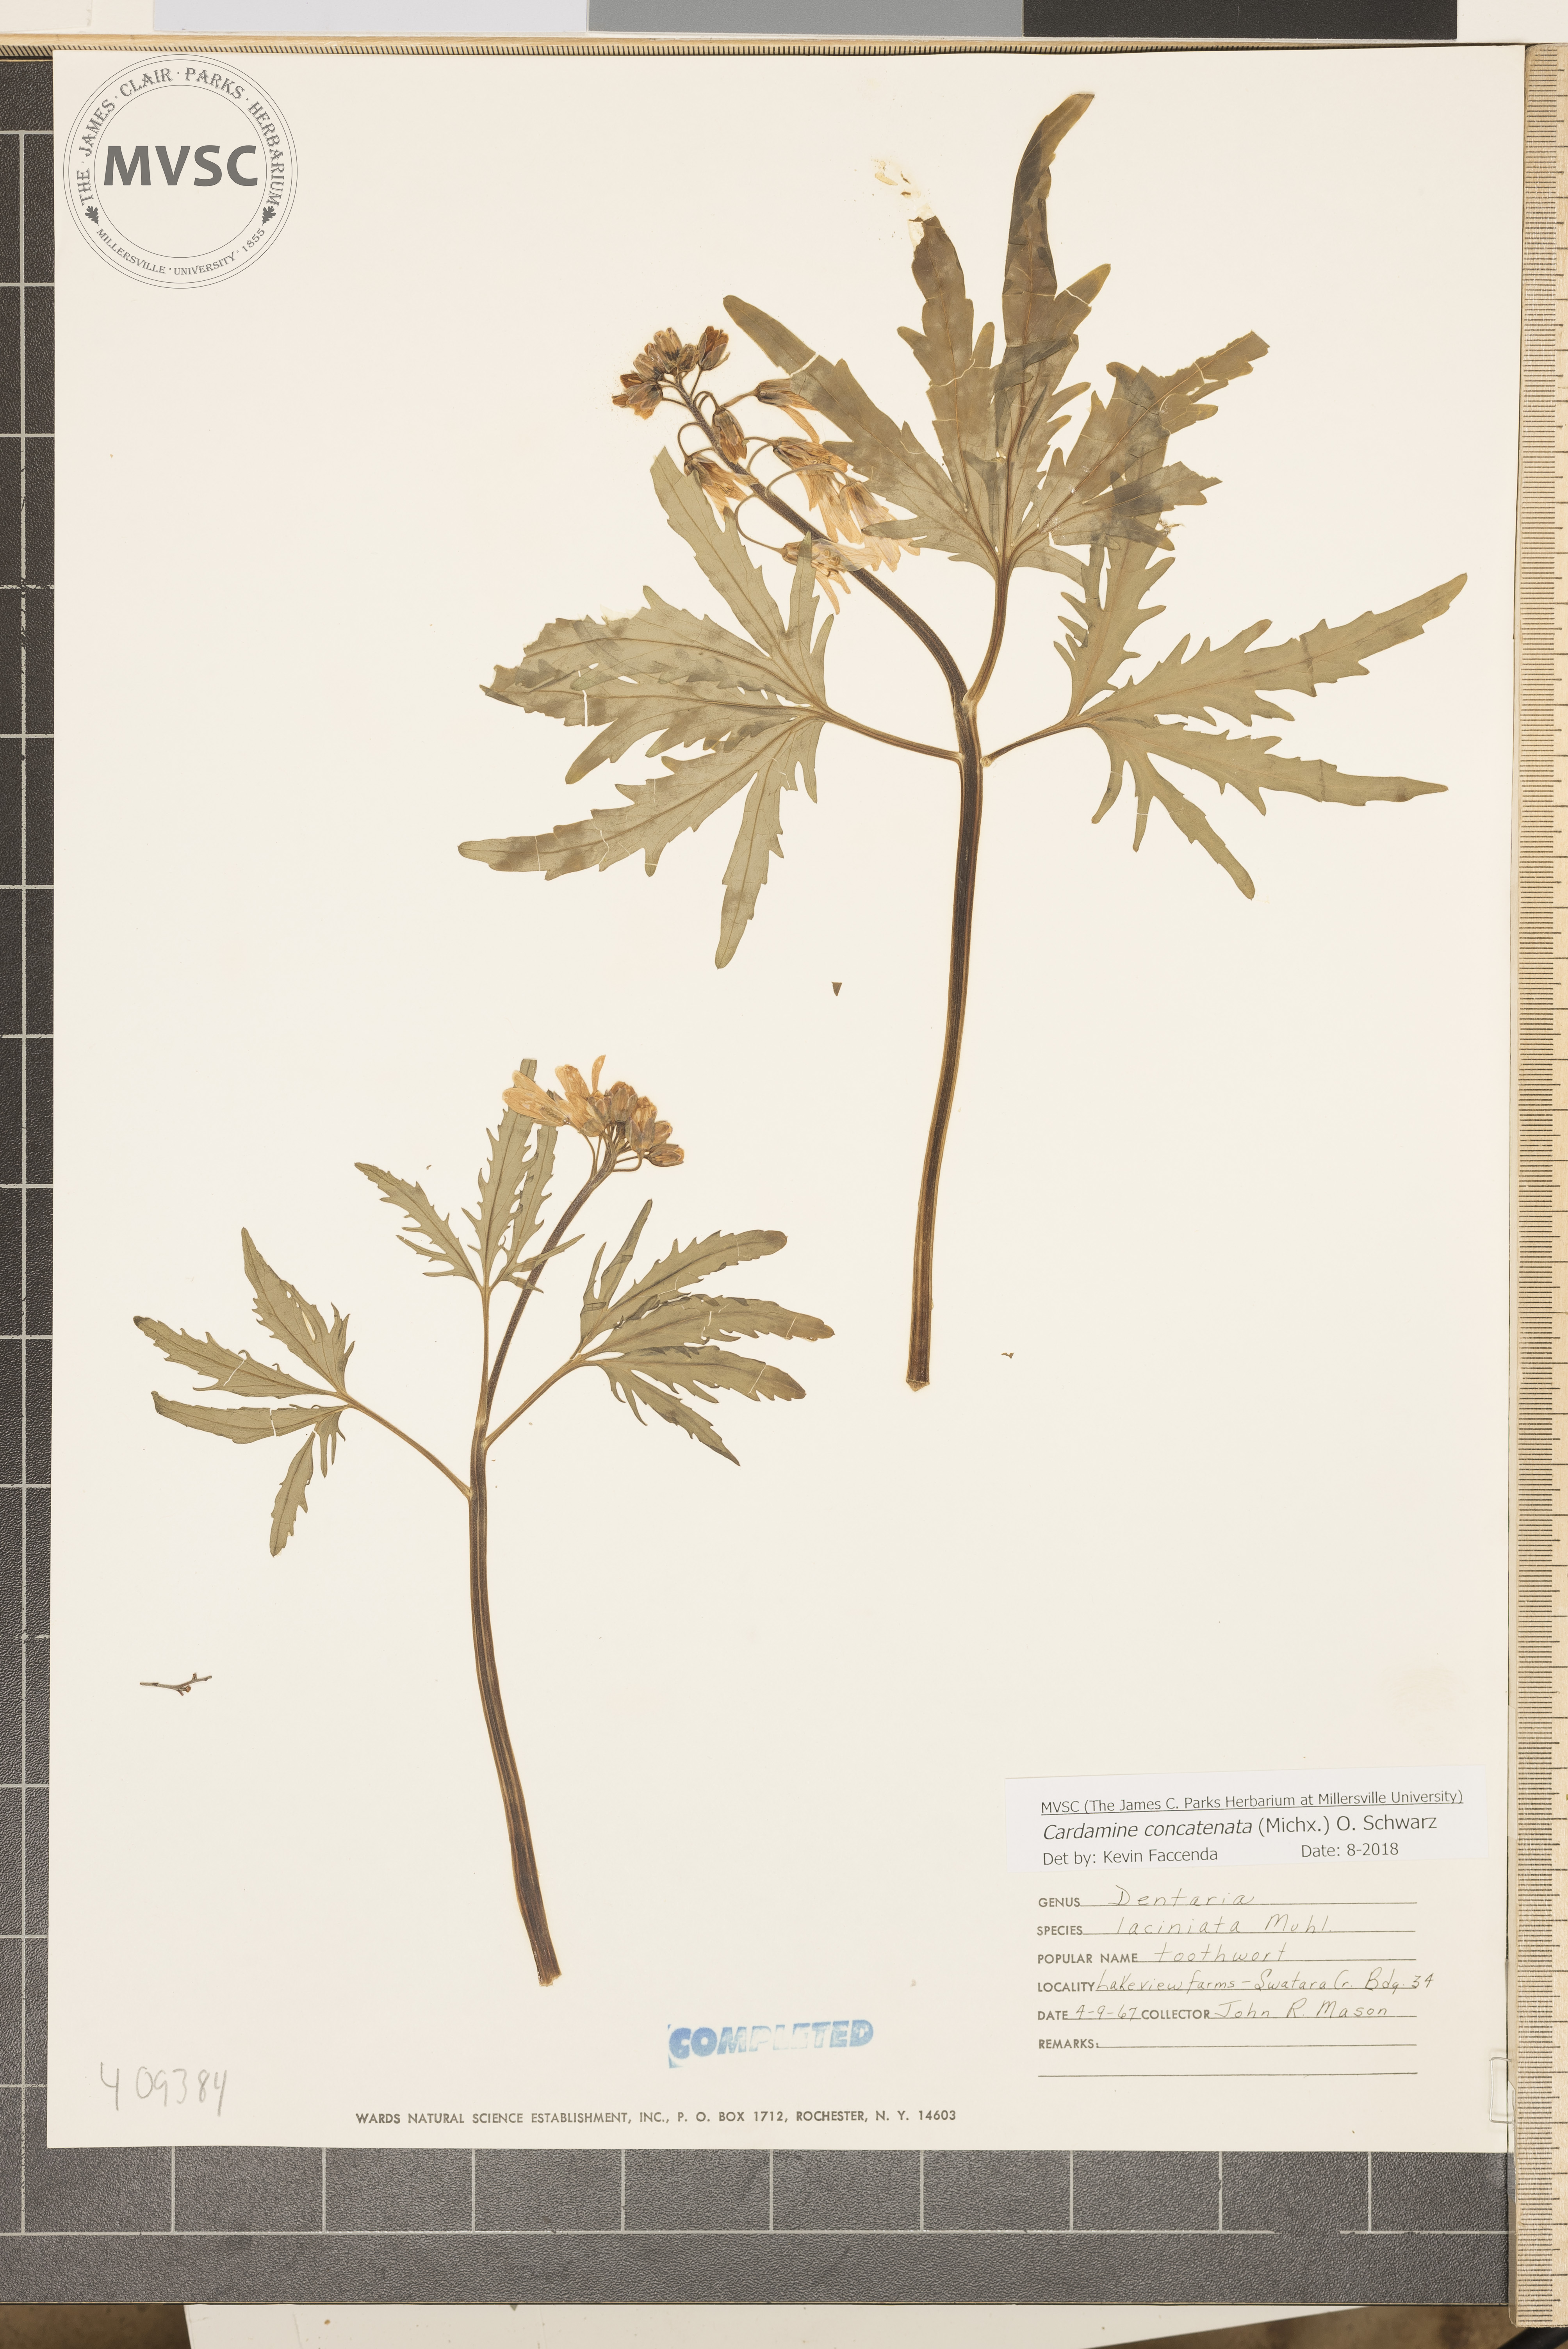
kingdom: Plantae
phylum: Tracheophyta
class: Magnoliopsida
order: Brassicales
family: Brassicaceae
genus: Cardamine
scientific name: Cardamine concatenata
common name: Cut-leaf toothcup
